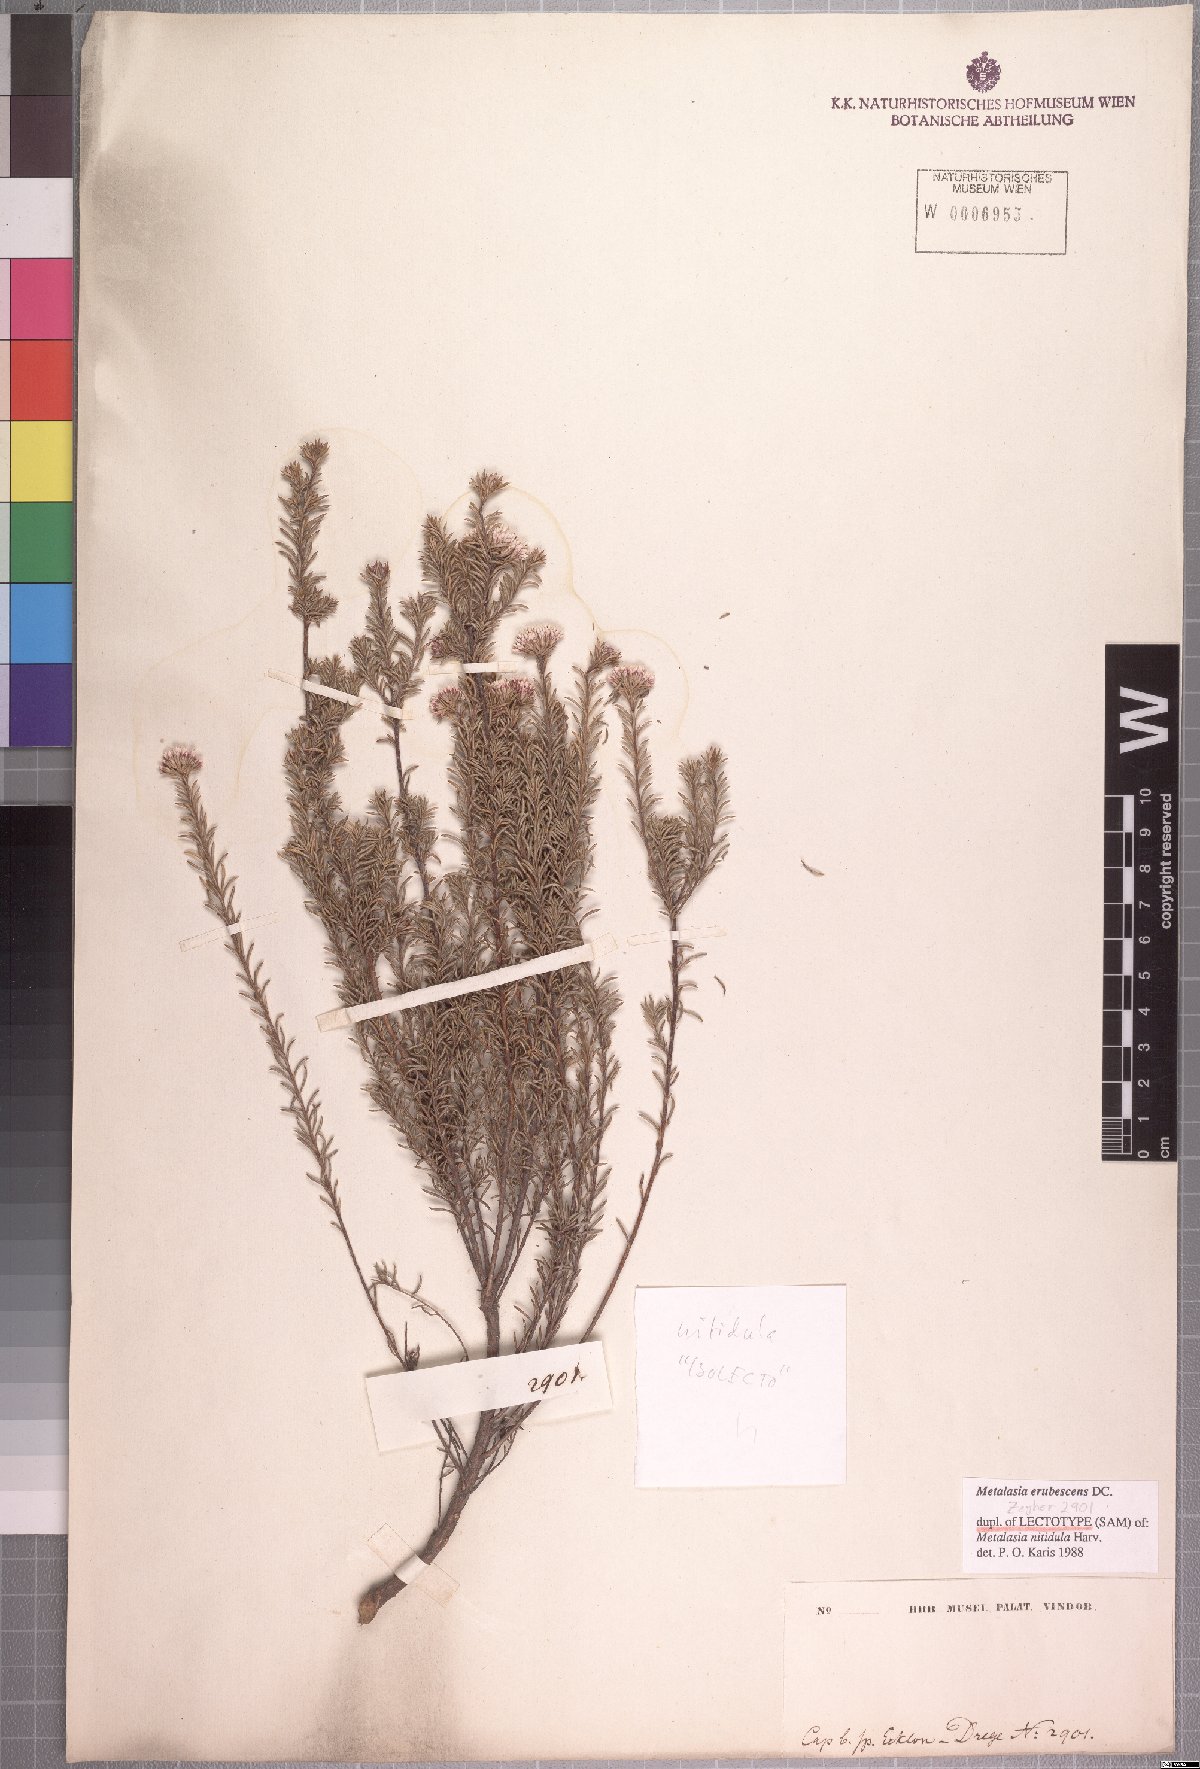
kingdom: Plantae
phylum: Tracheophyta
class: Magnoliopsida
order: Asterales
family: Asteraceae
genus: Metalasia
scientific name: Metalasia erubescens
